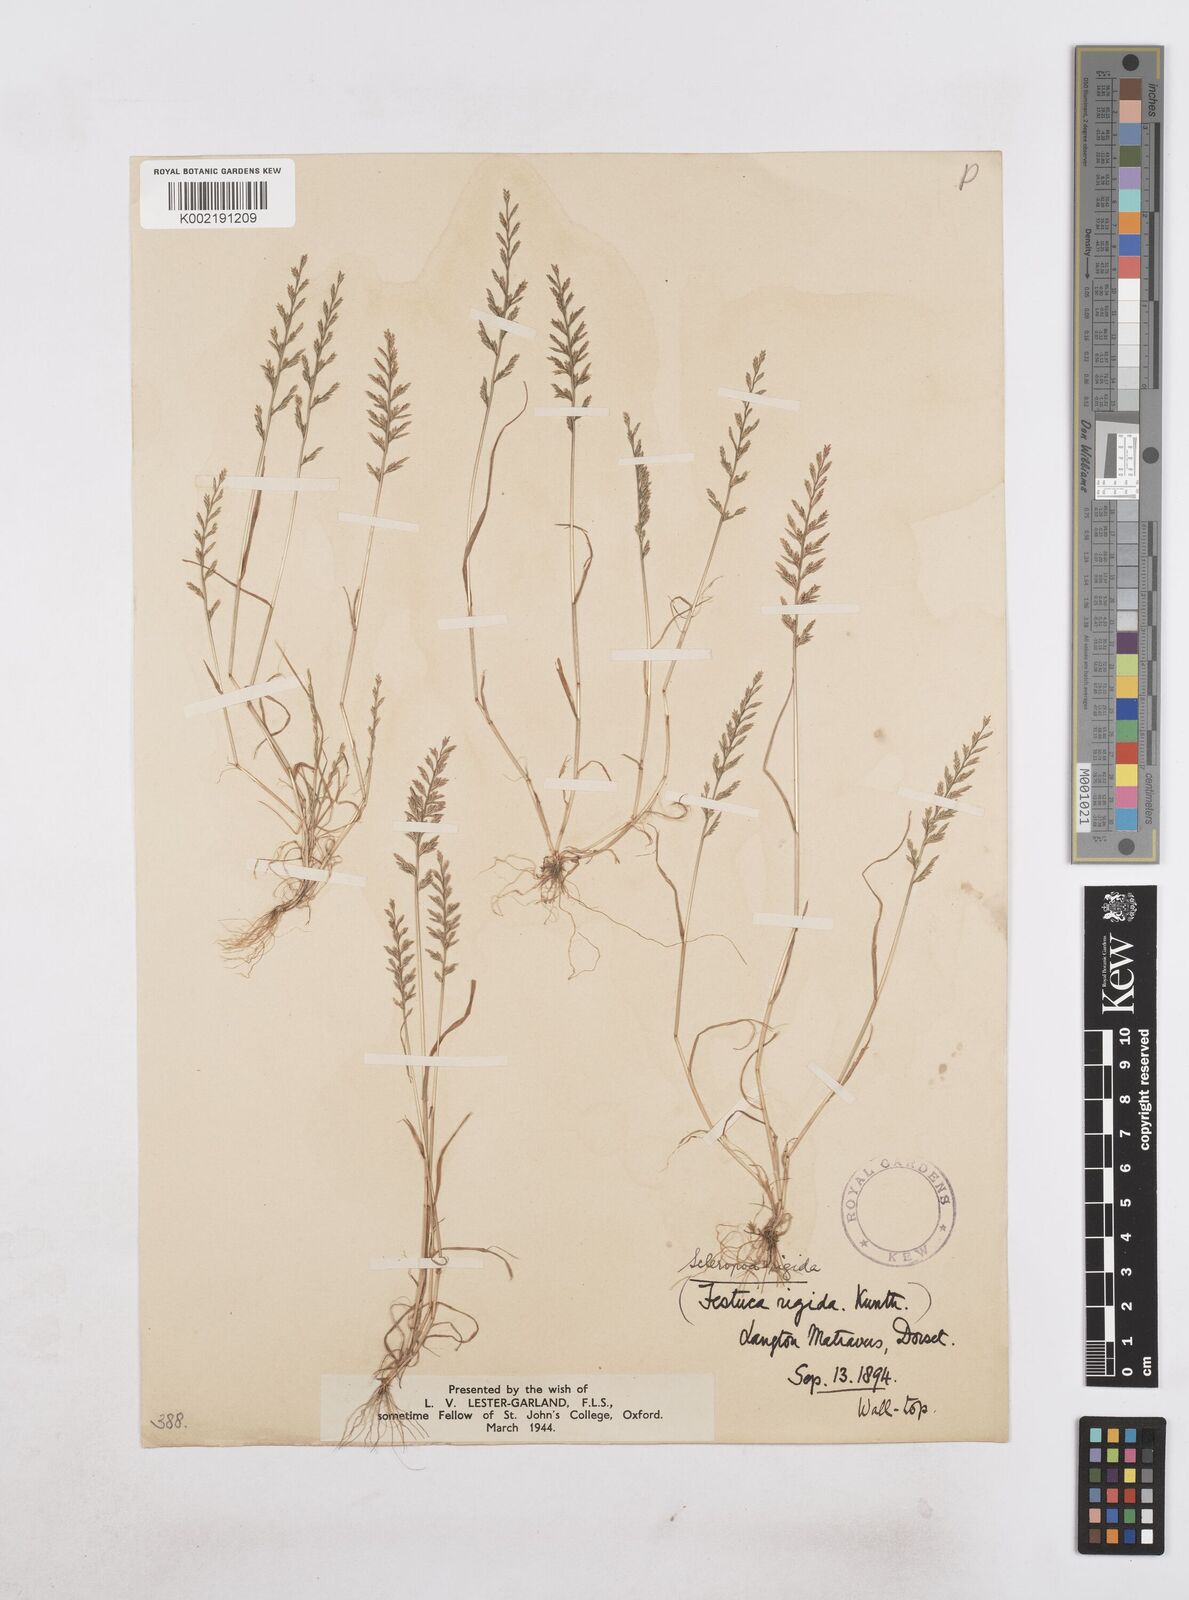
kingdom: Plantae
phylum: Tracheophyta
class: Liliopsida
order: Poales
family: Poaceae
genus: Catapodium
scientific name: Catapodium rigidum
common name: Fern-grass
